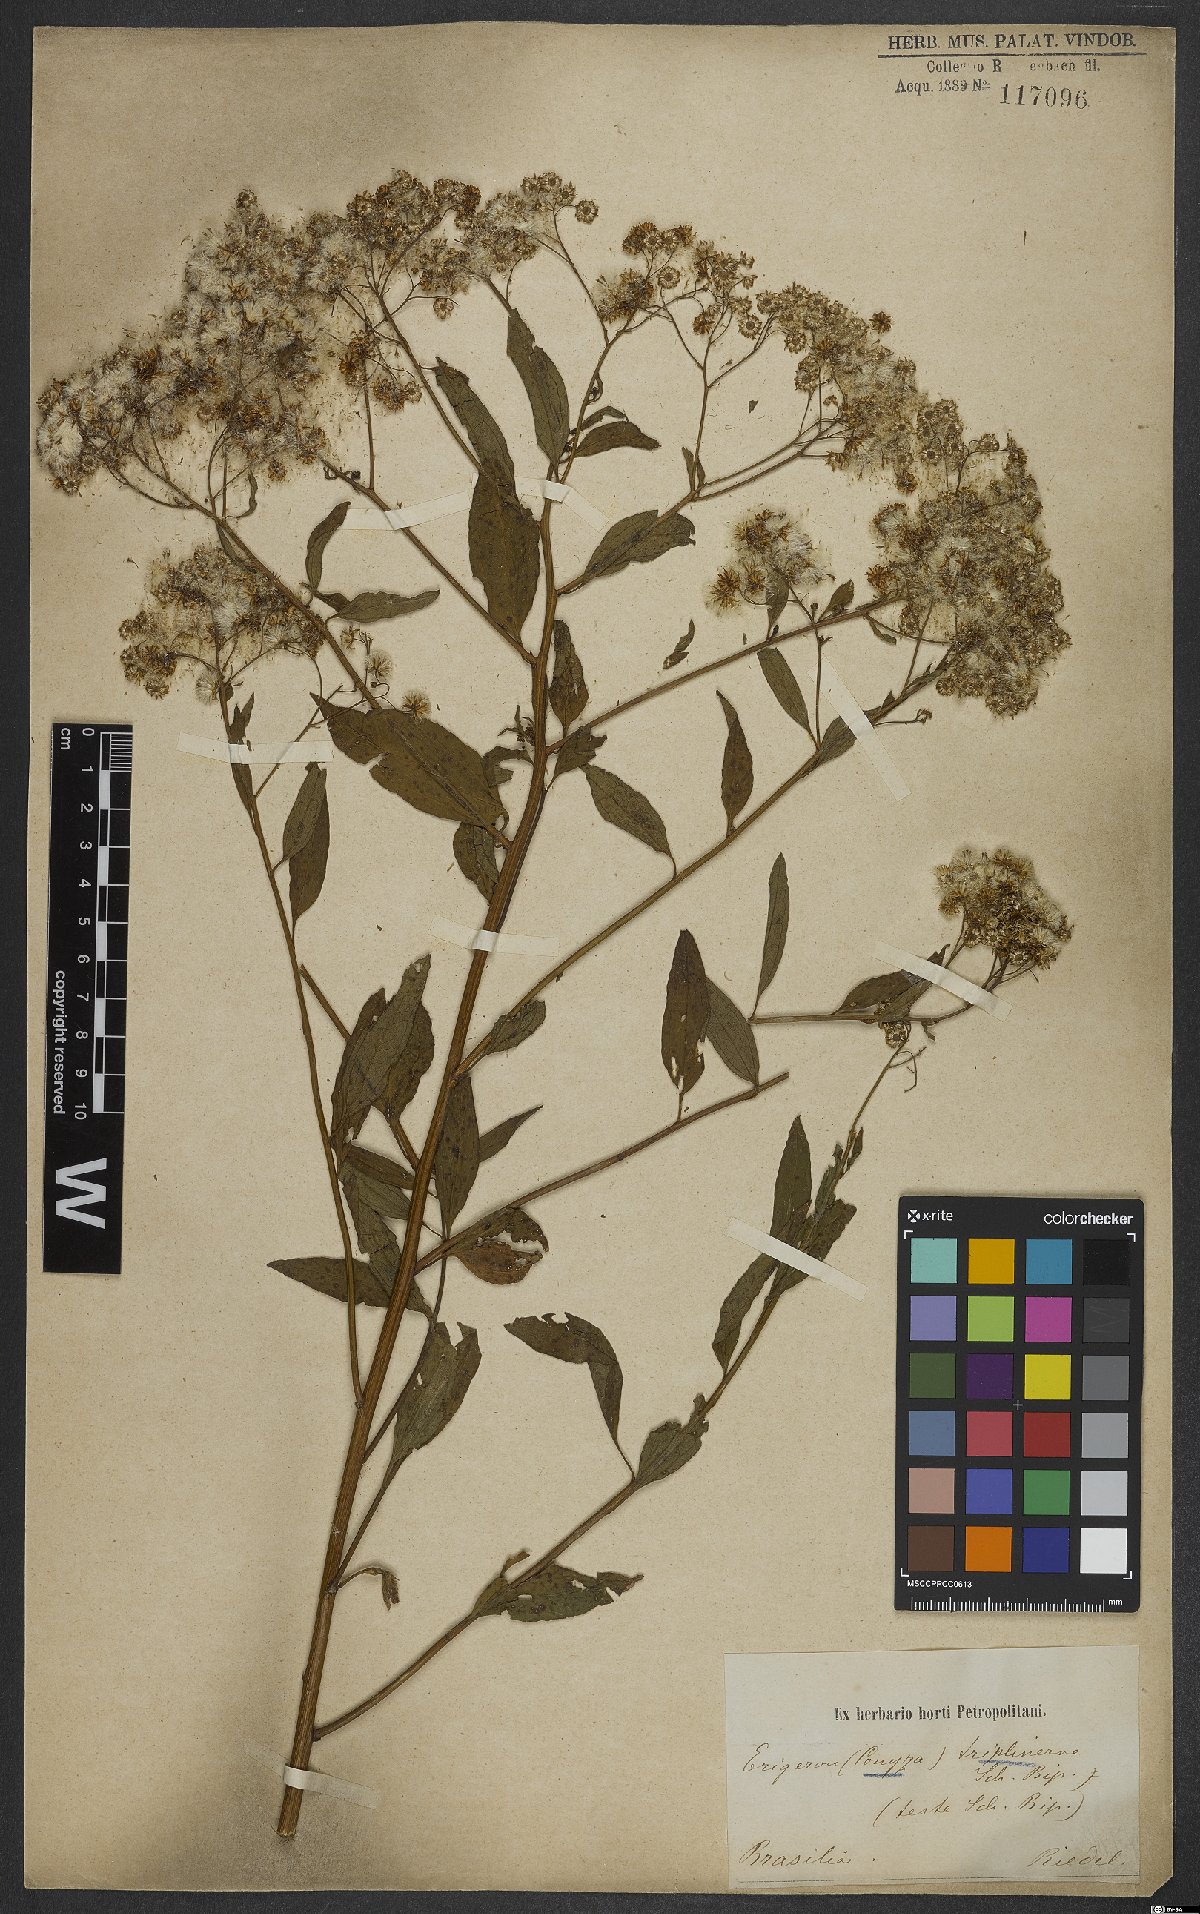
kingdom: Plantae
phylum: Tracheophyta
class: Magnoliopsida
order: Asterales
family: Asteraceae
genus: Archibaccharis
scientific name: Archibaccharis vulneraria
